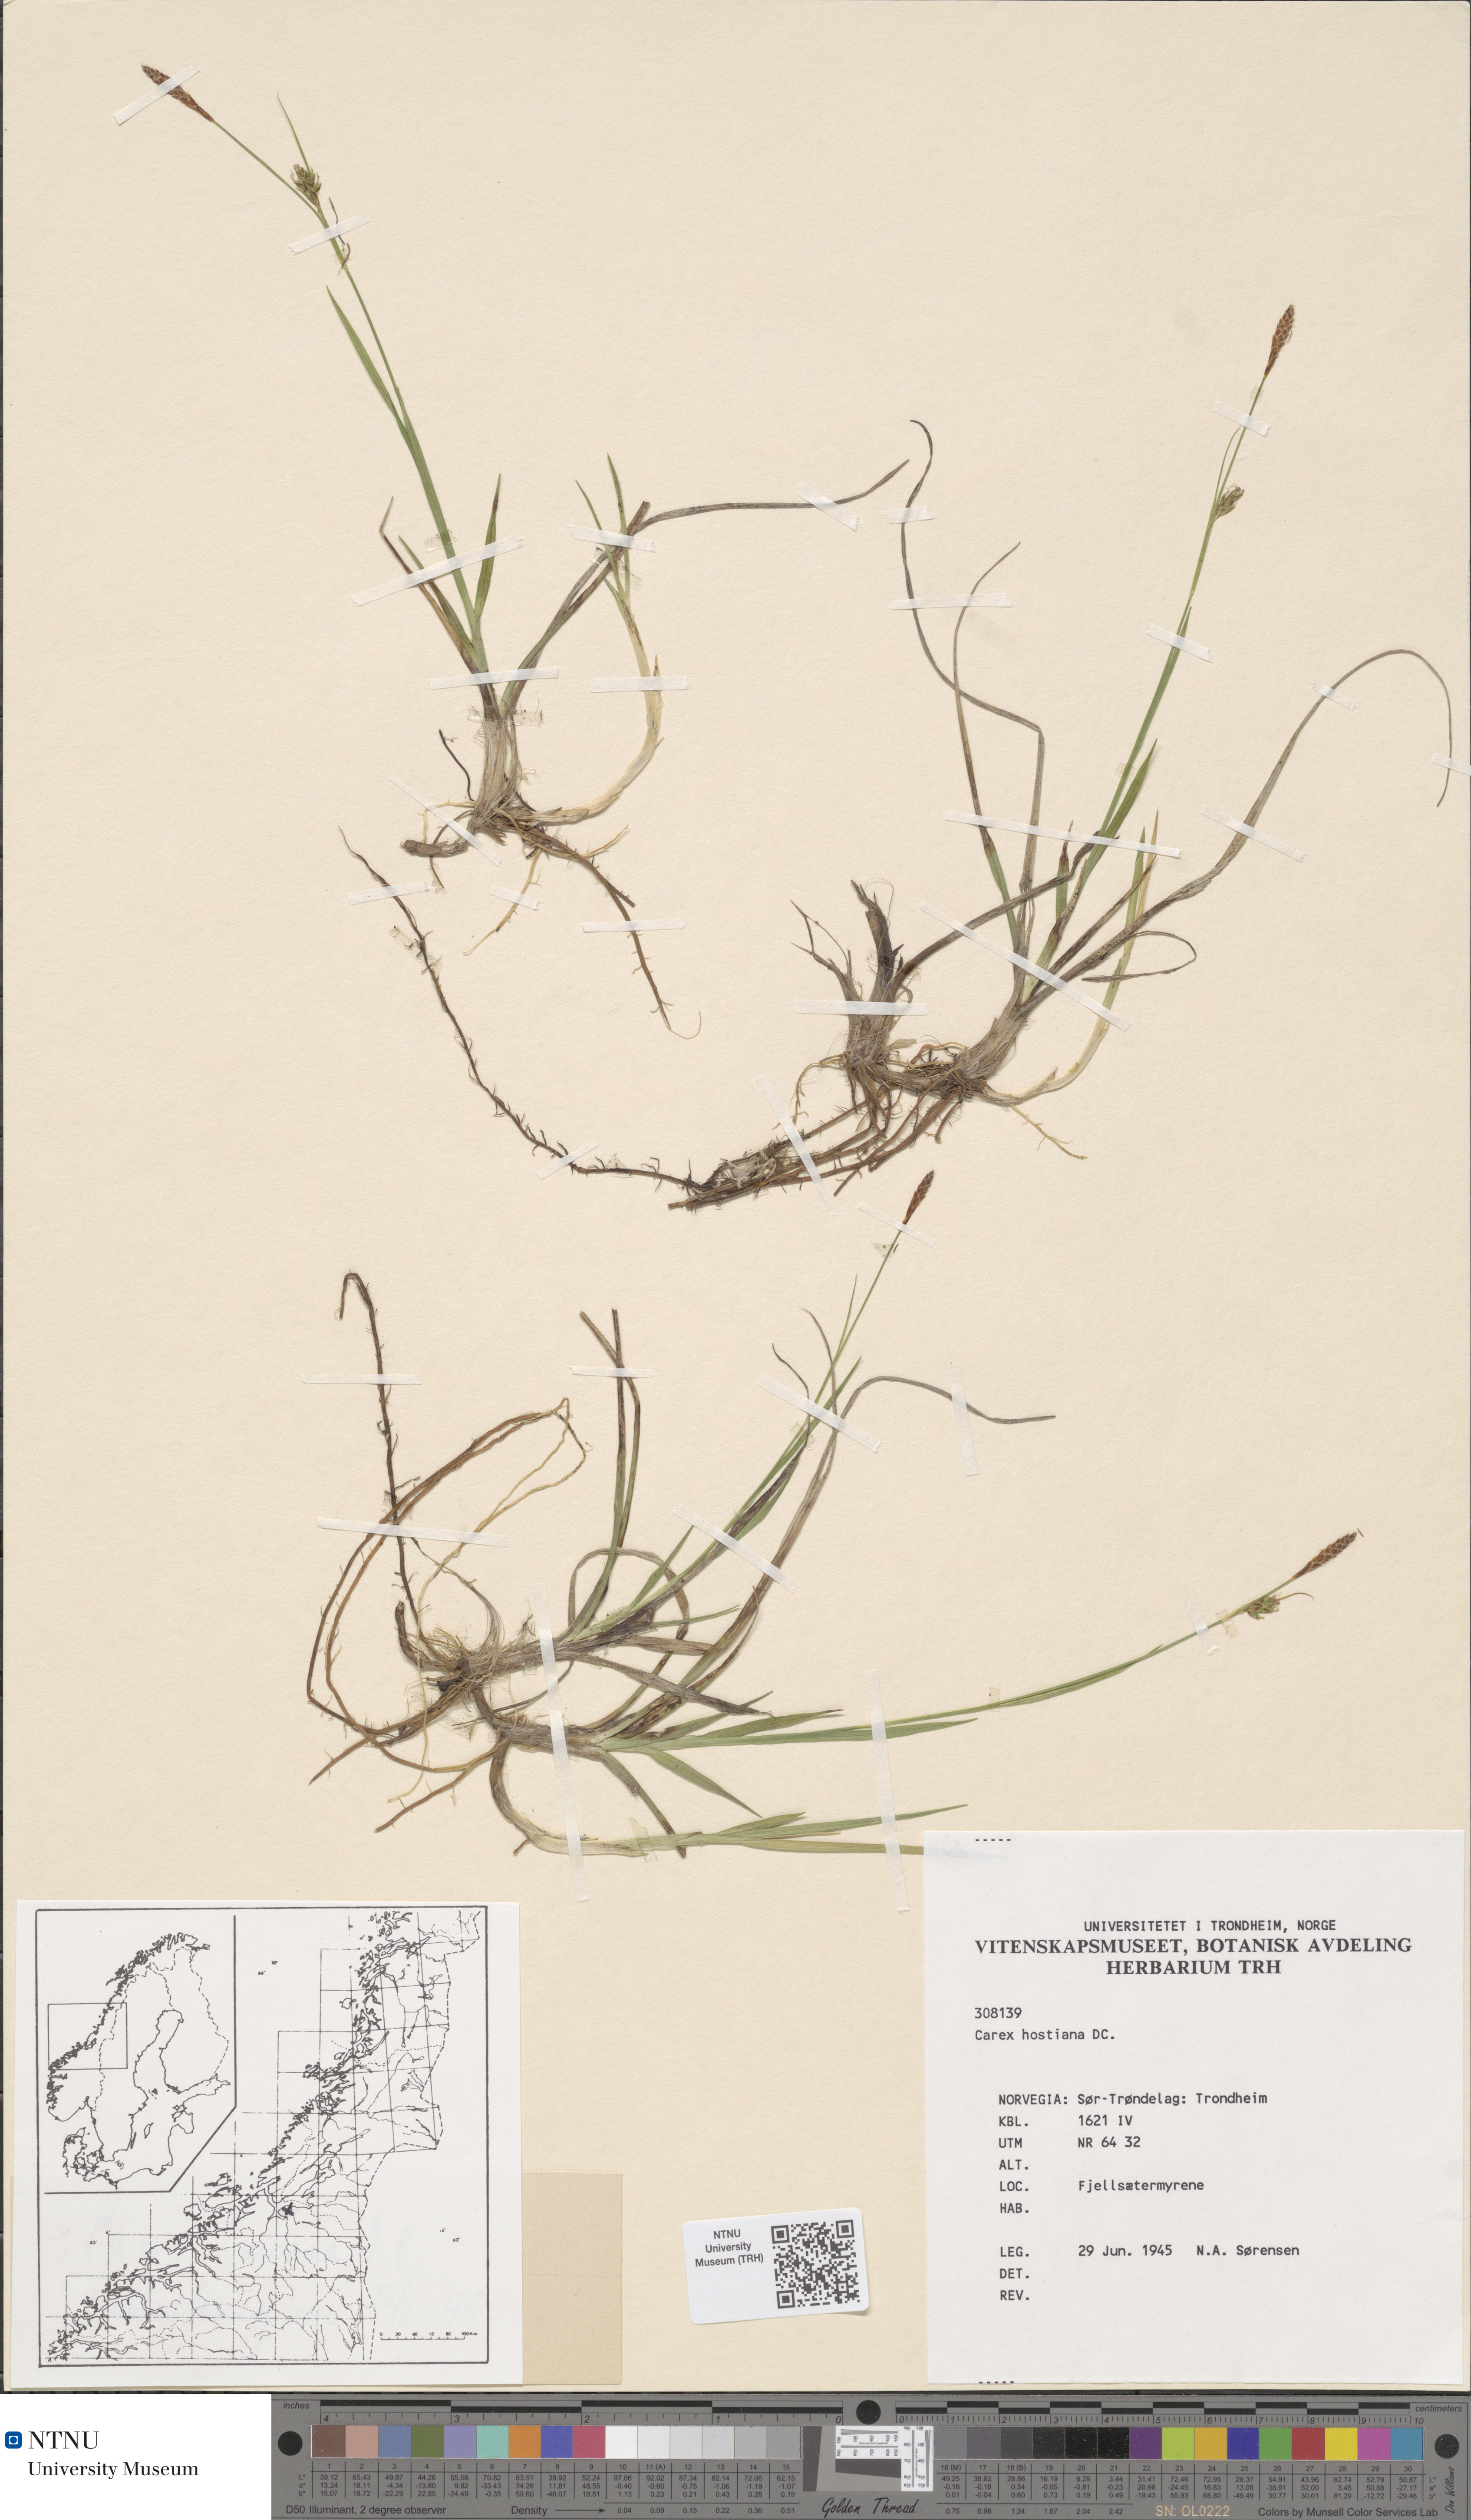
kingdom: Plantae
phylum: Tracheophyta
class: Liliopsida
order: Poales
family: Cyperaceae
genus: Carex
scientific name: Carex hostiana
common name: Tawny sedge
